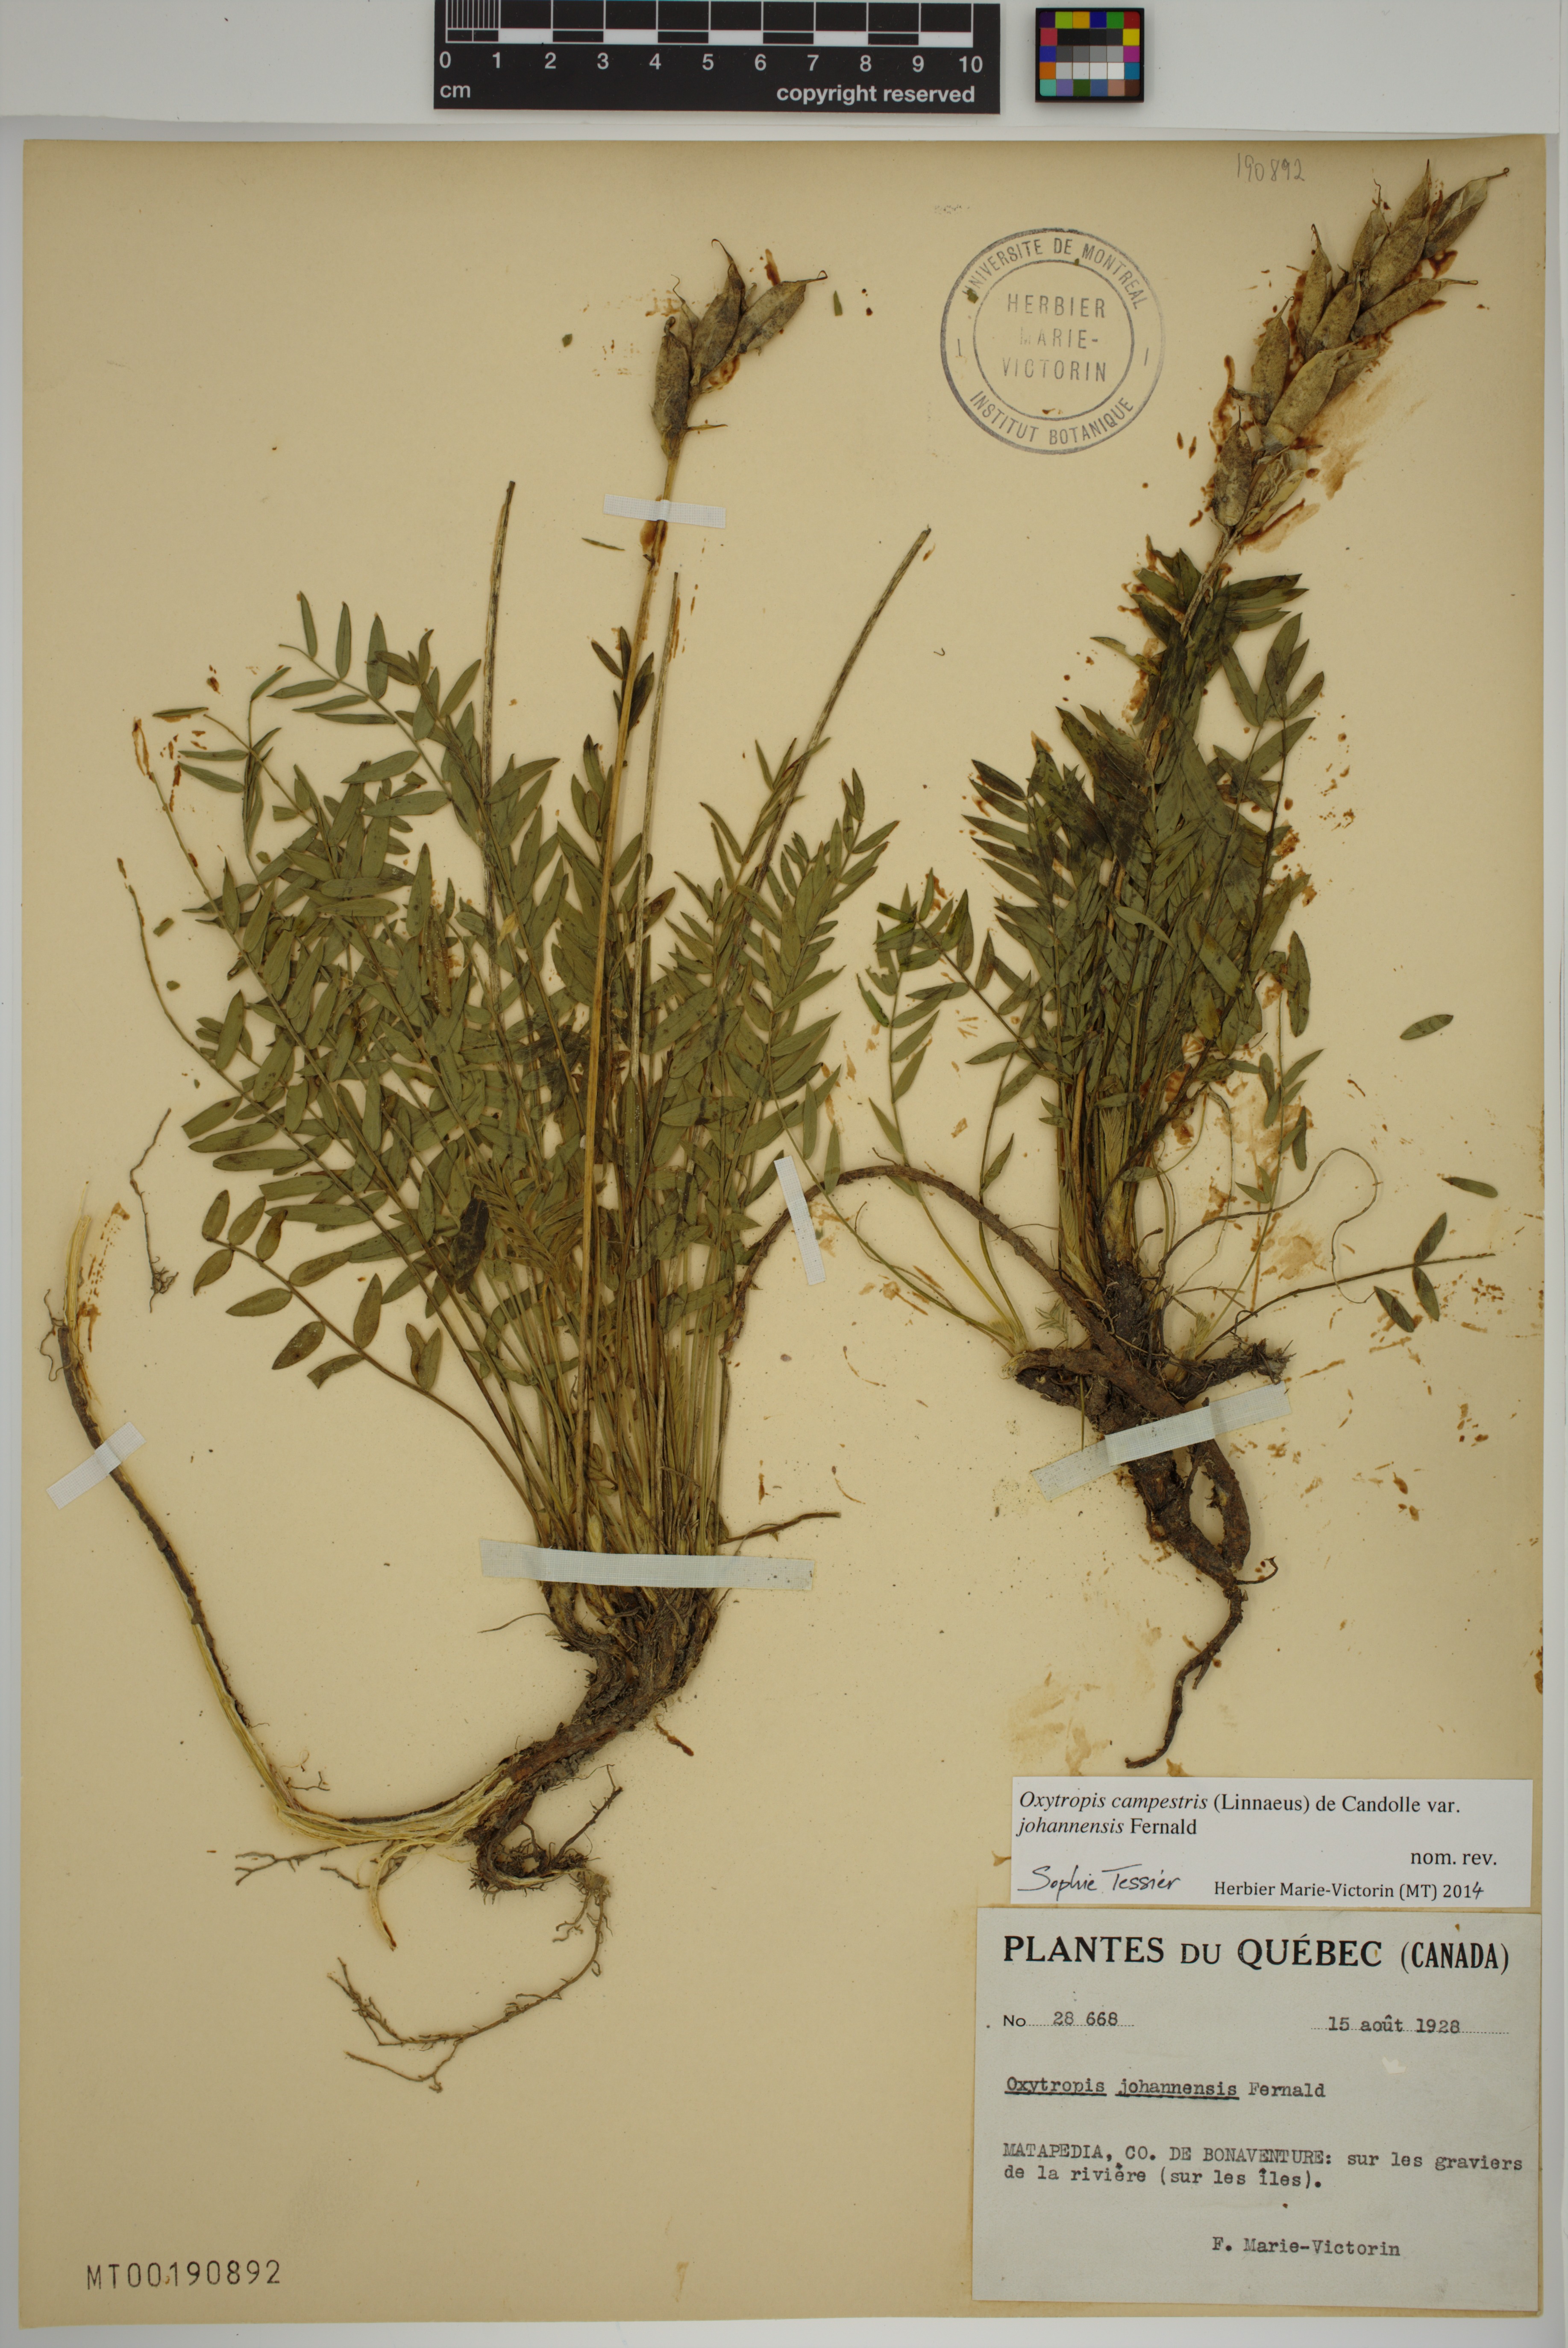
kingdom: Plantae
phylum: Tracheophyta
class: Magnoliopsida
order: Fabales
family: Fabaceae
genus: Oxytropis
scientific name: Oxytropis campestris
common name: Field locoweed
